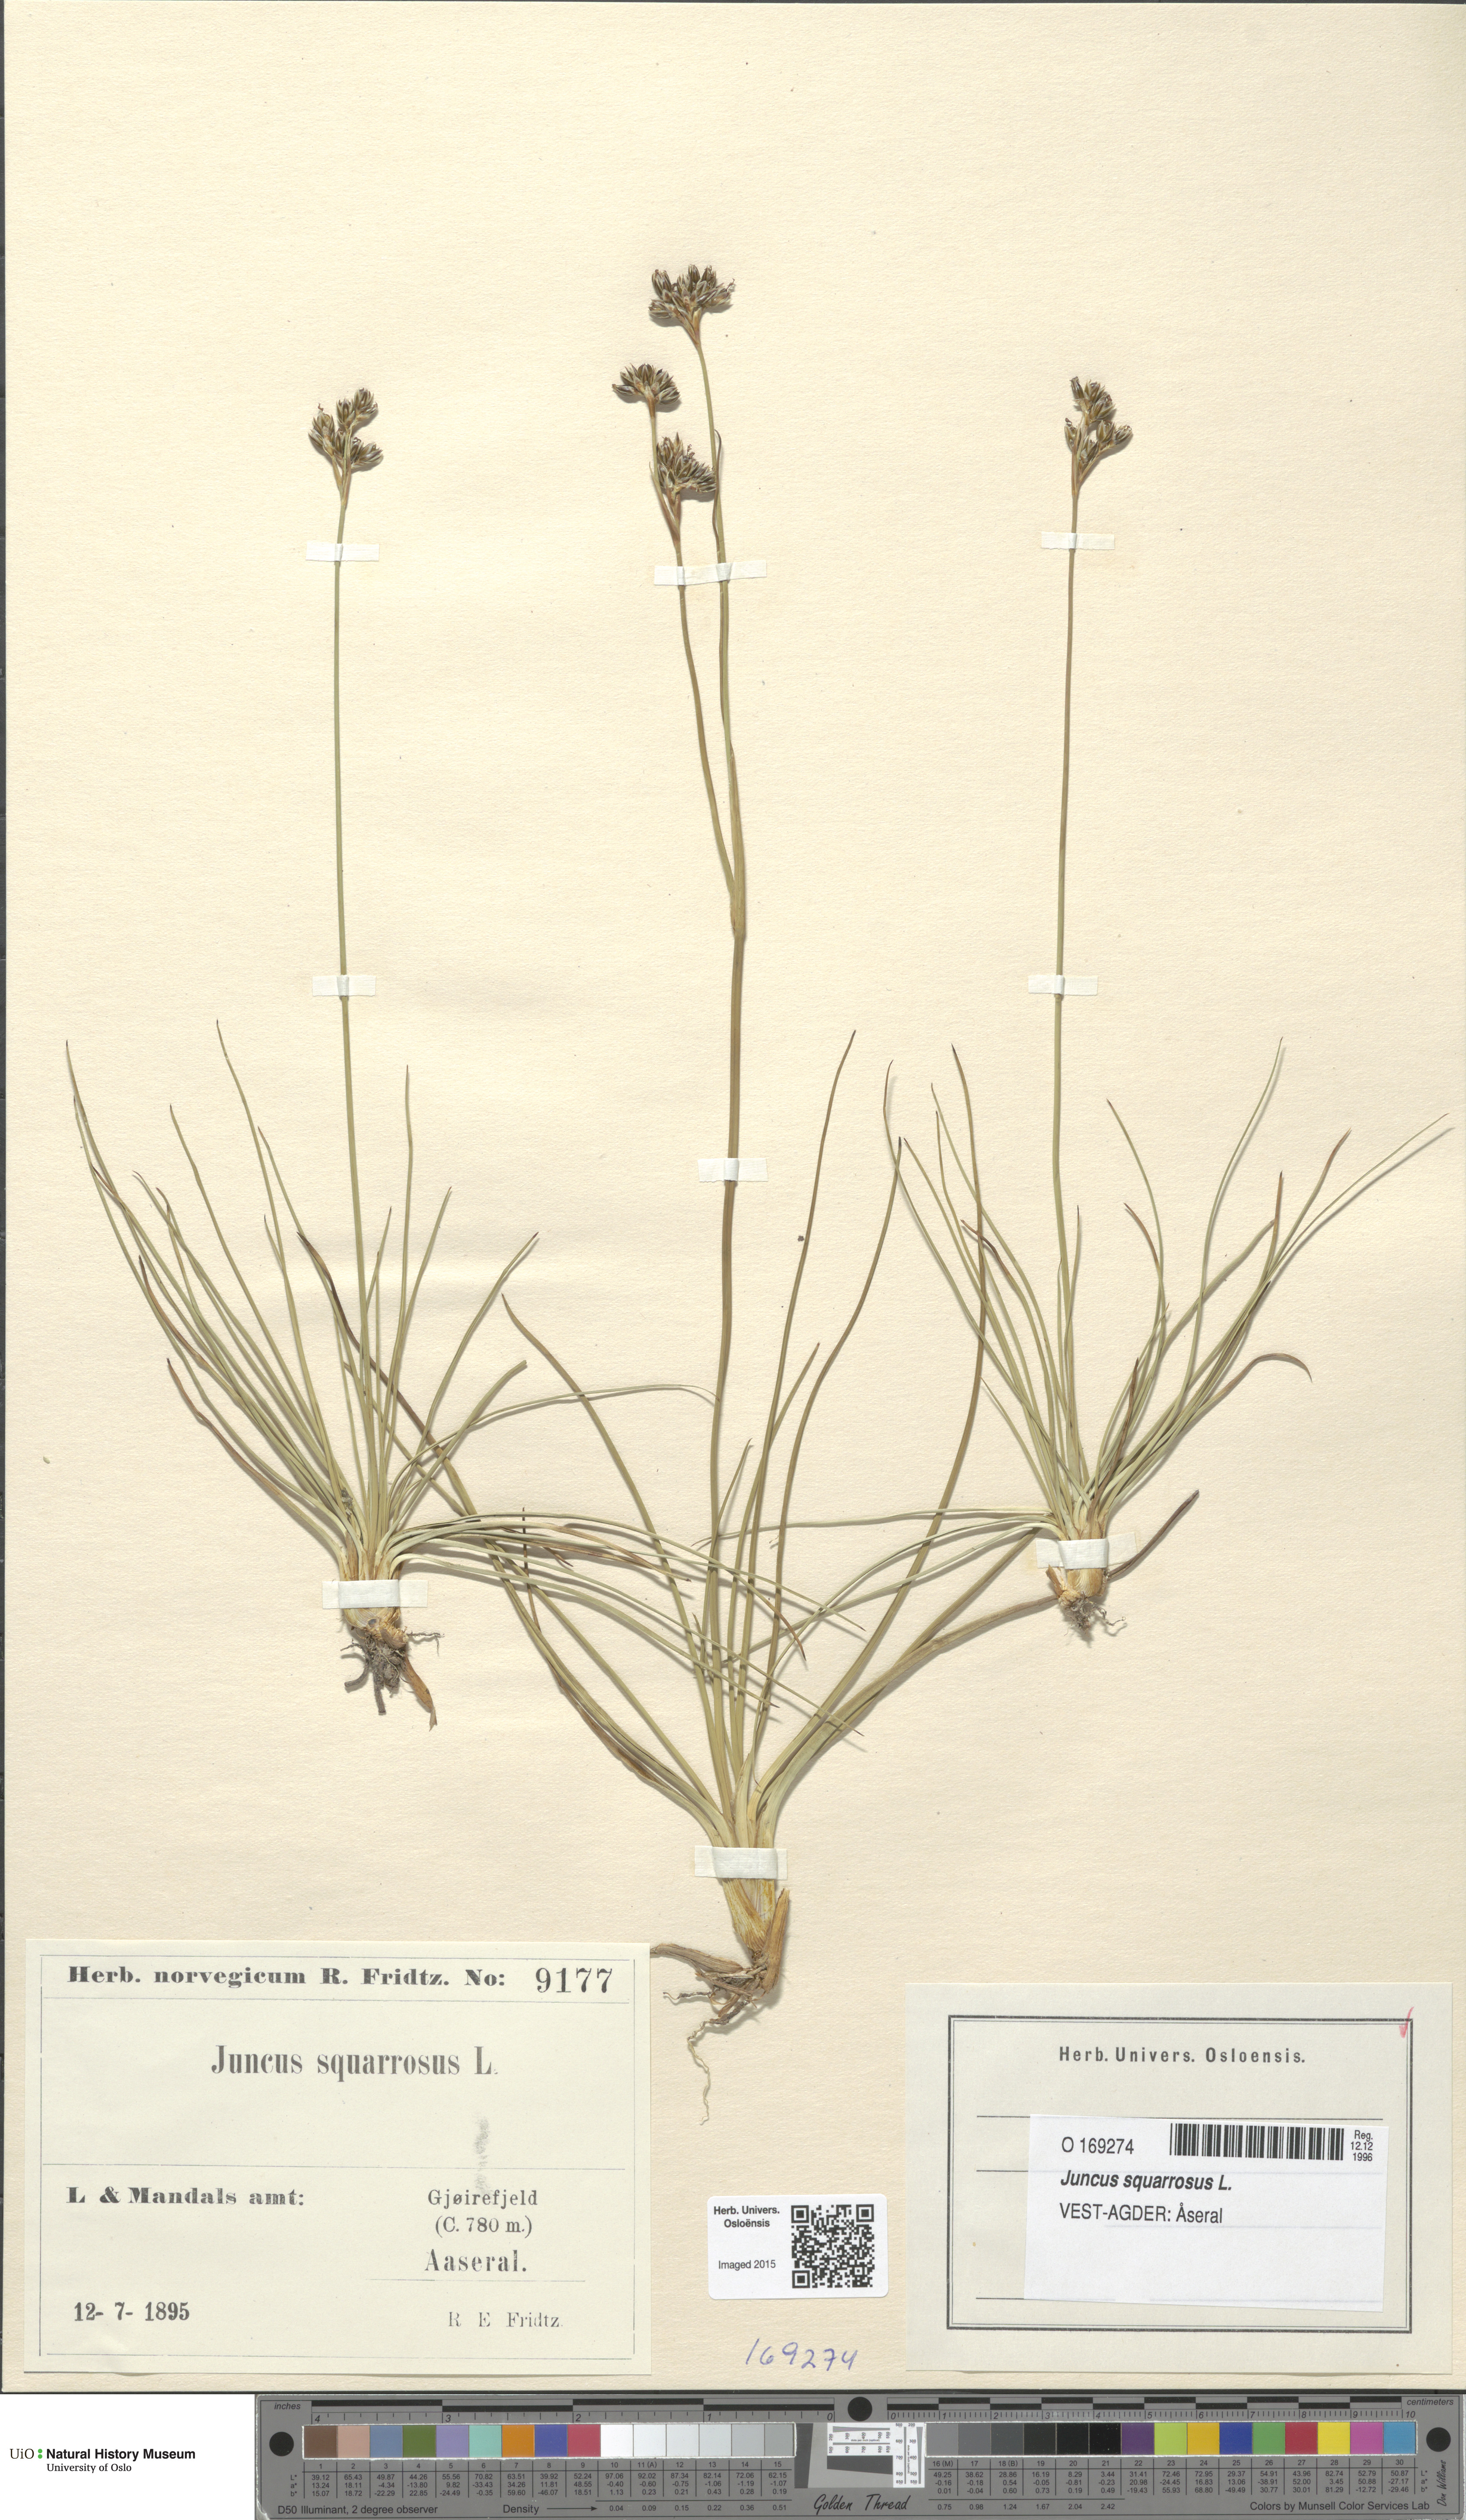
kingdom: Plantae
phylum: Tracheophyta
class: Liliopsida
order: Poales
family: Juncaceae
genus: Juncus
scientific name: Juncus squarrosus
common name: Heath rush
